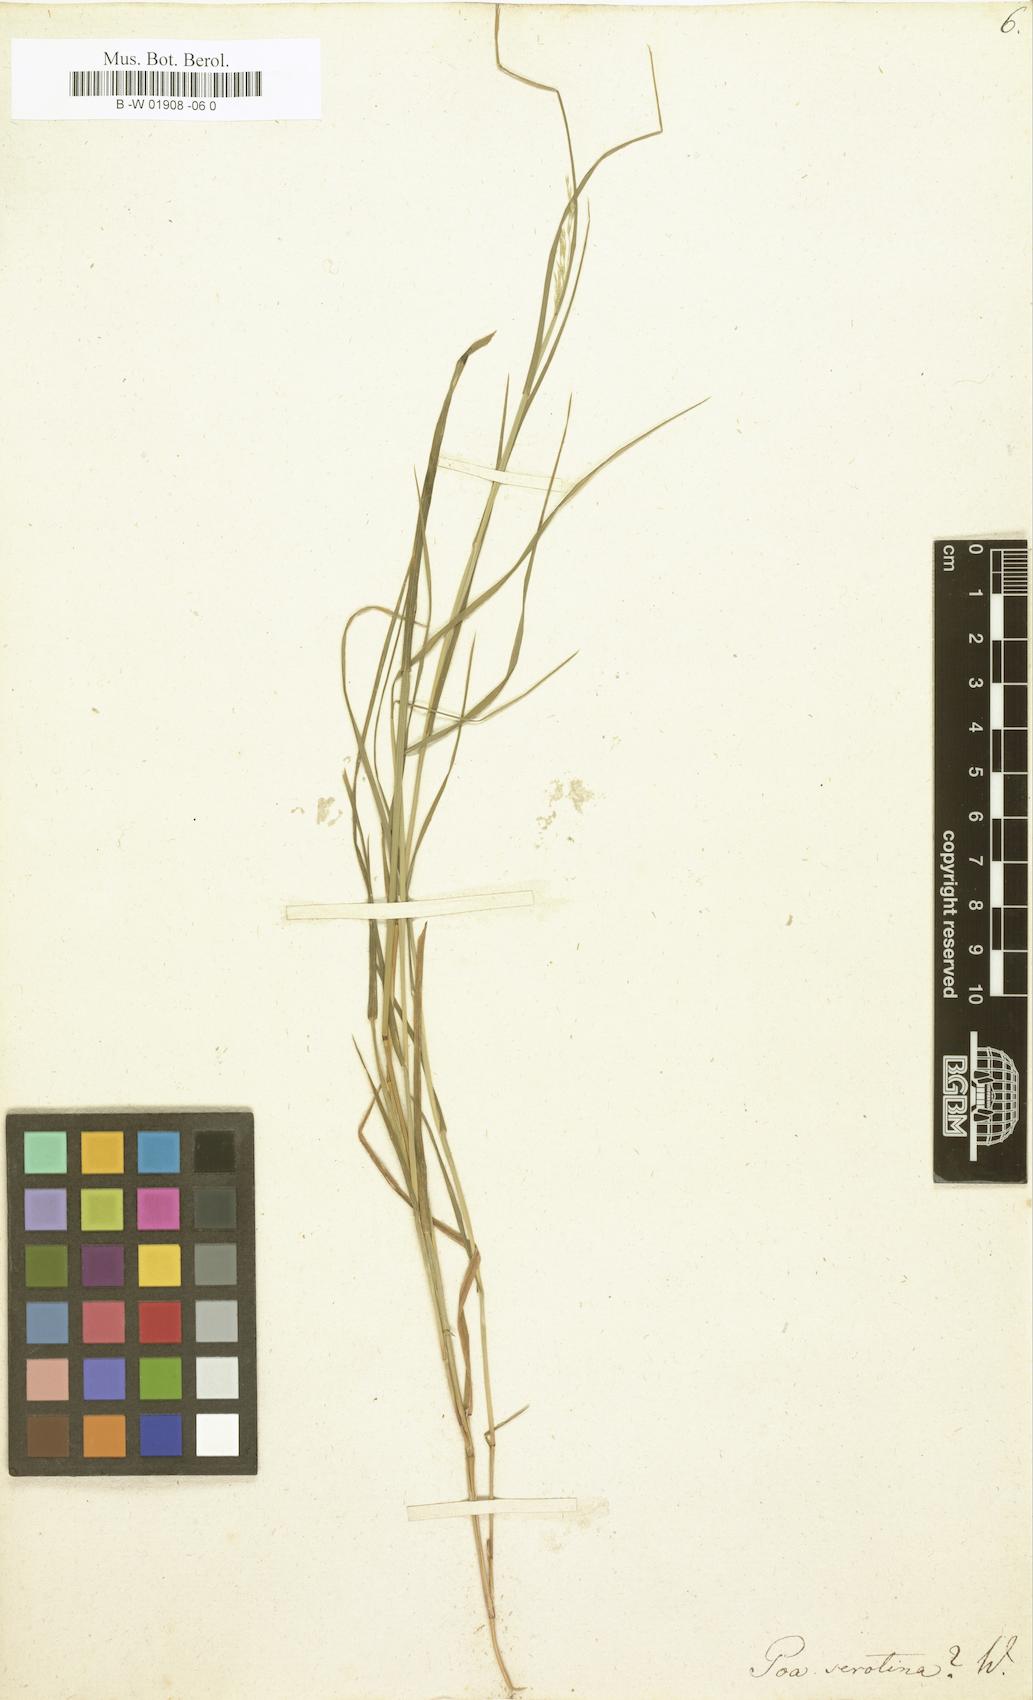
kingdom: Plantae
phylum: Tracheophyta
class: Liliopsida
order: Poales
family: Poaceae
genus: Poa
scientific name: Poa serotina
